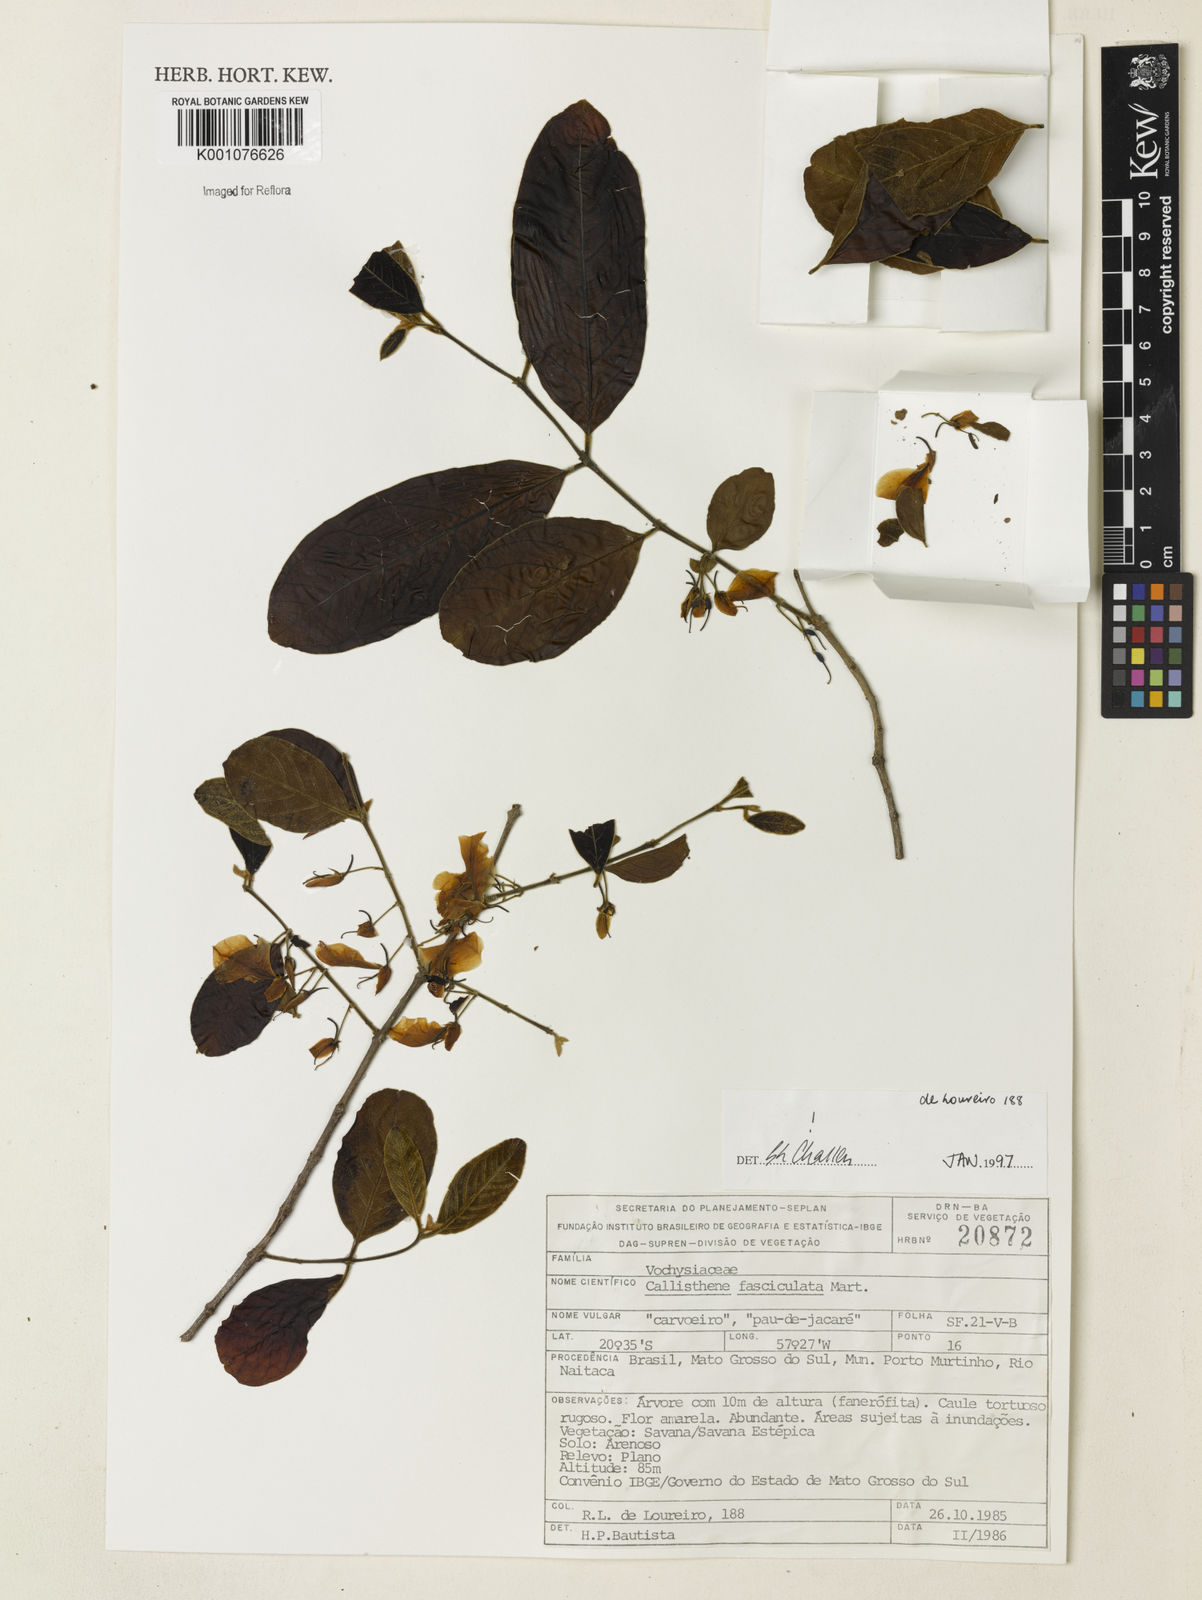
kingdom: Plantae
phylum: Tracheophyta
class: Magnoliopsida
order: Myrtales
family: Vochysiaceae
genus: Callisthene
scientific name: Callisthene fasciculata
